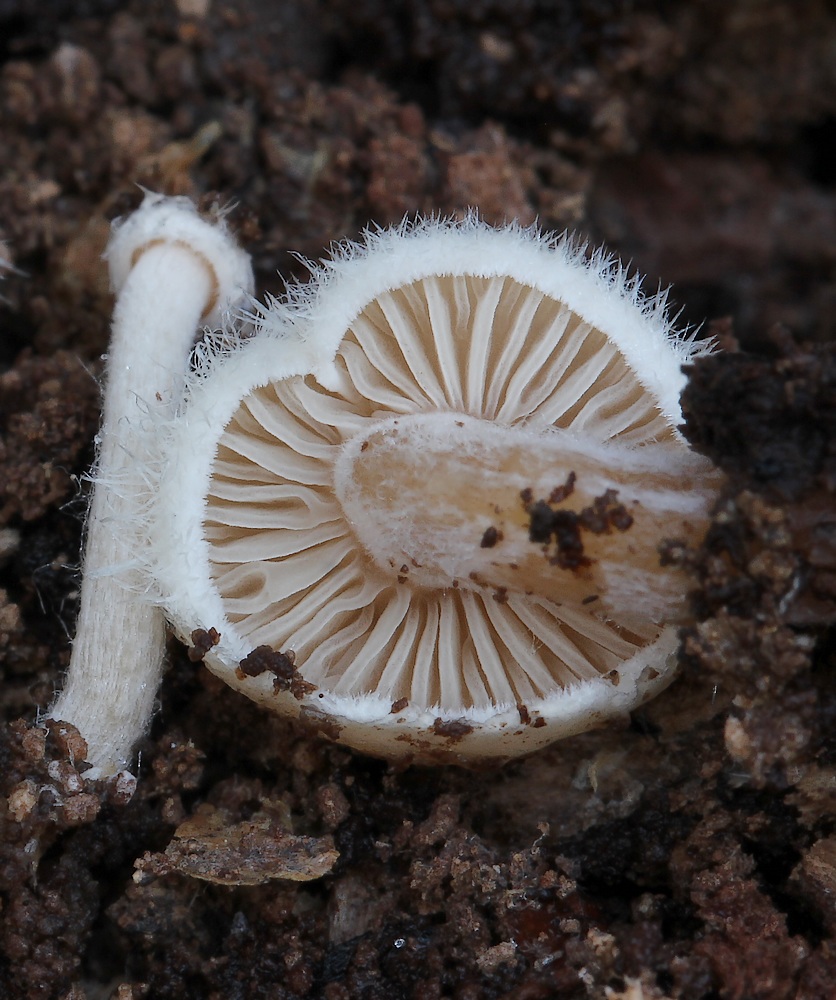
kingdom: Fungi
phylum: Basidiomycota
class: Agaricomycetes
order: Agaricales
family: Tricholomataceae
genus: Ripartites
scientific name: Ripartites tricholoma
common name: almindelig skæghat
